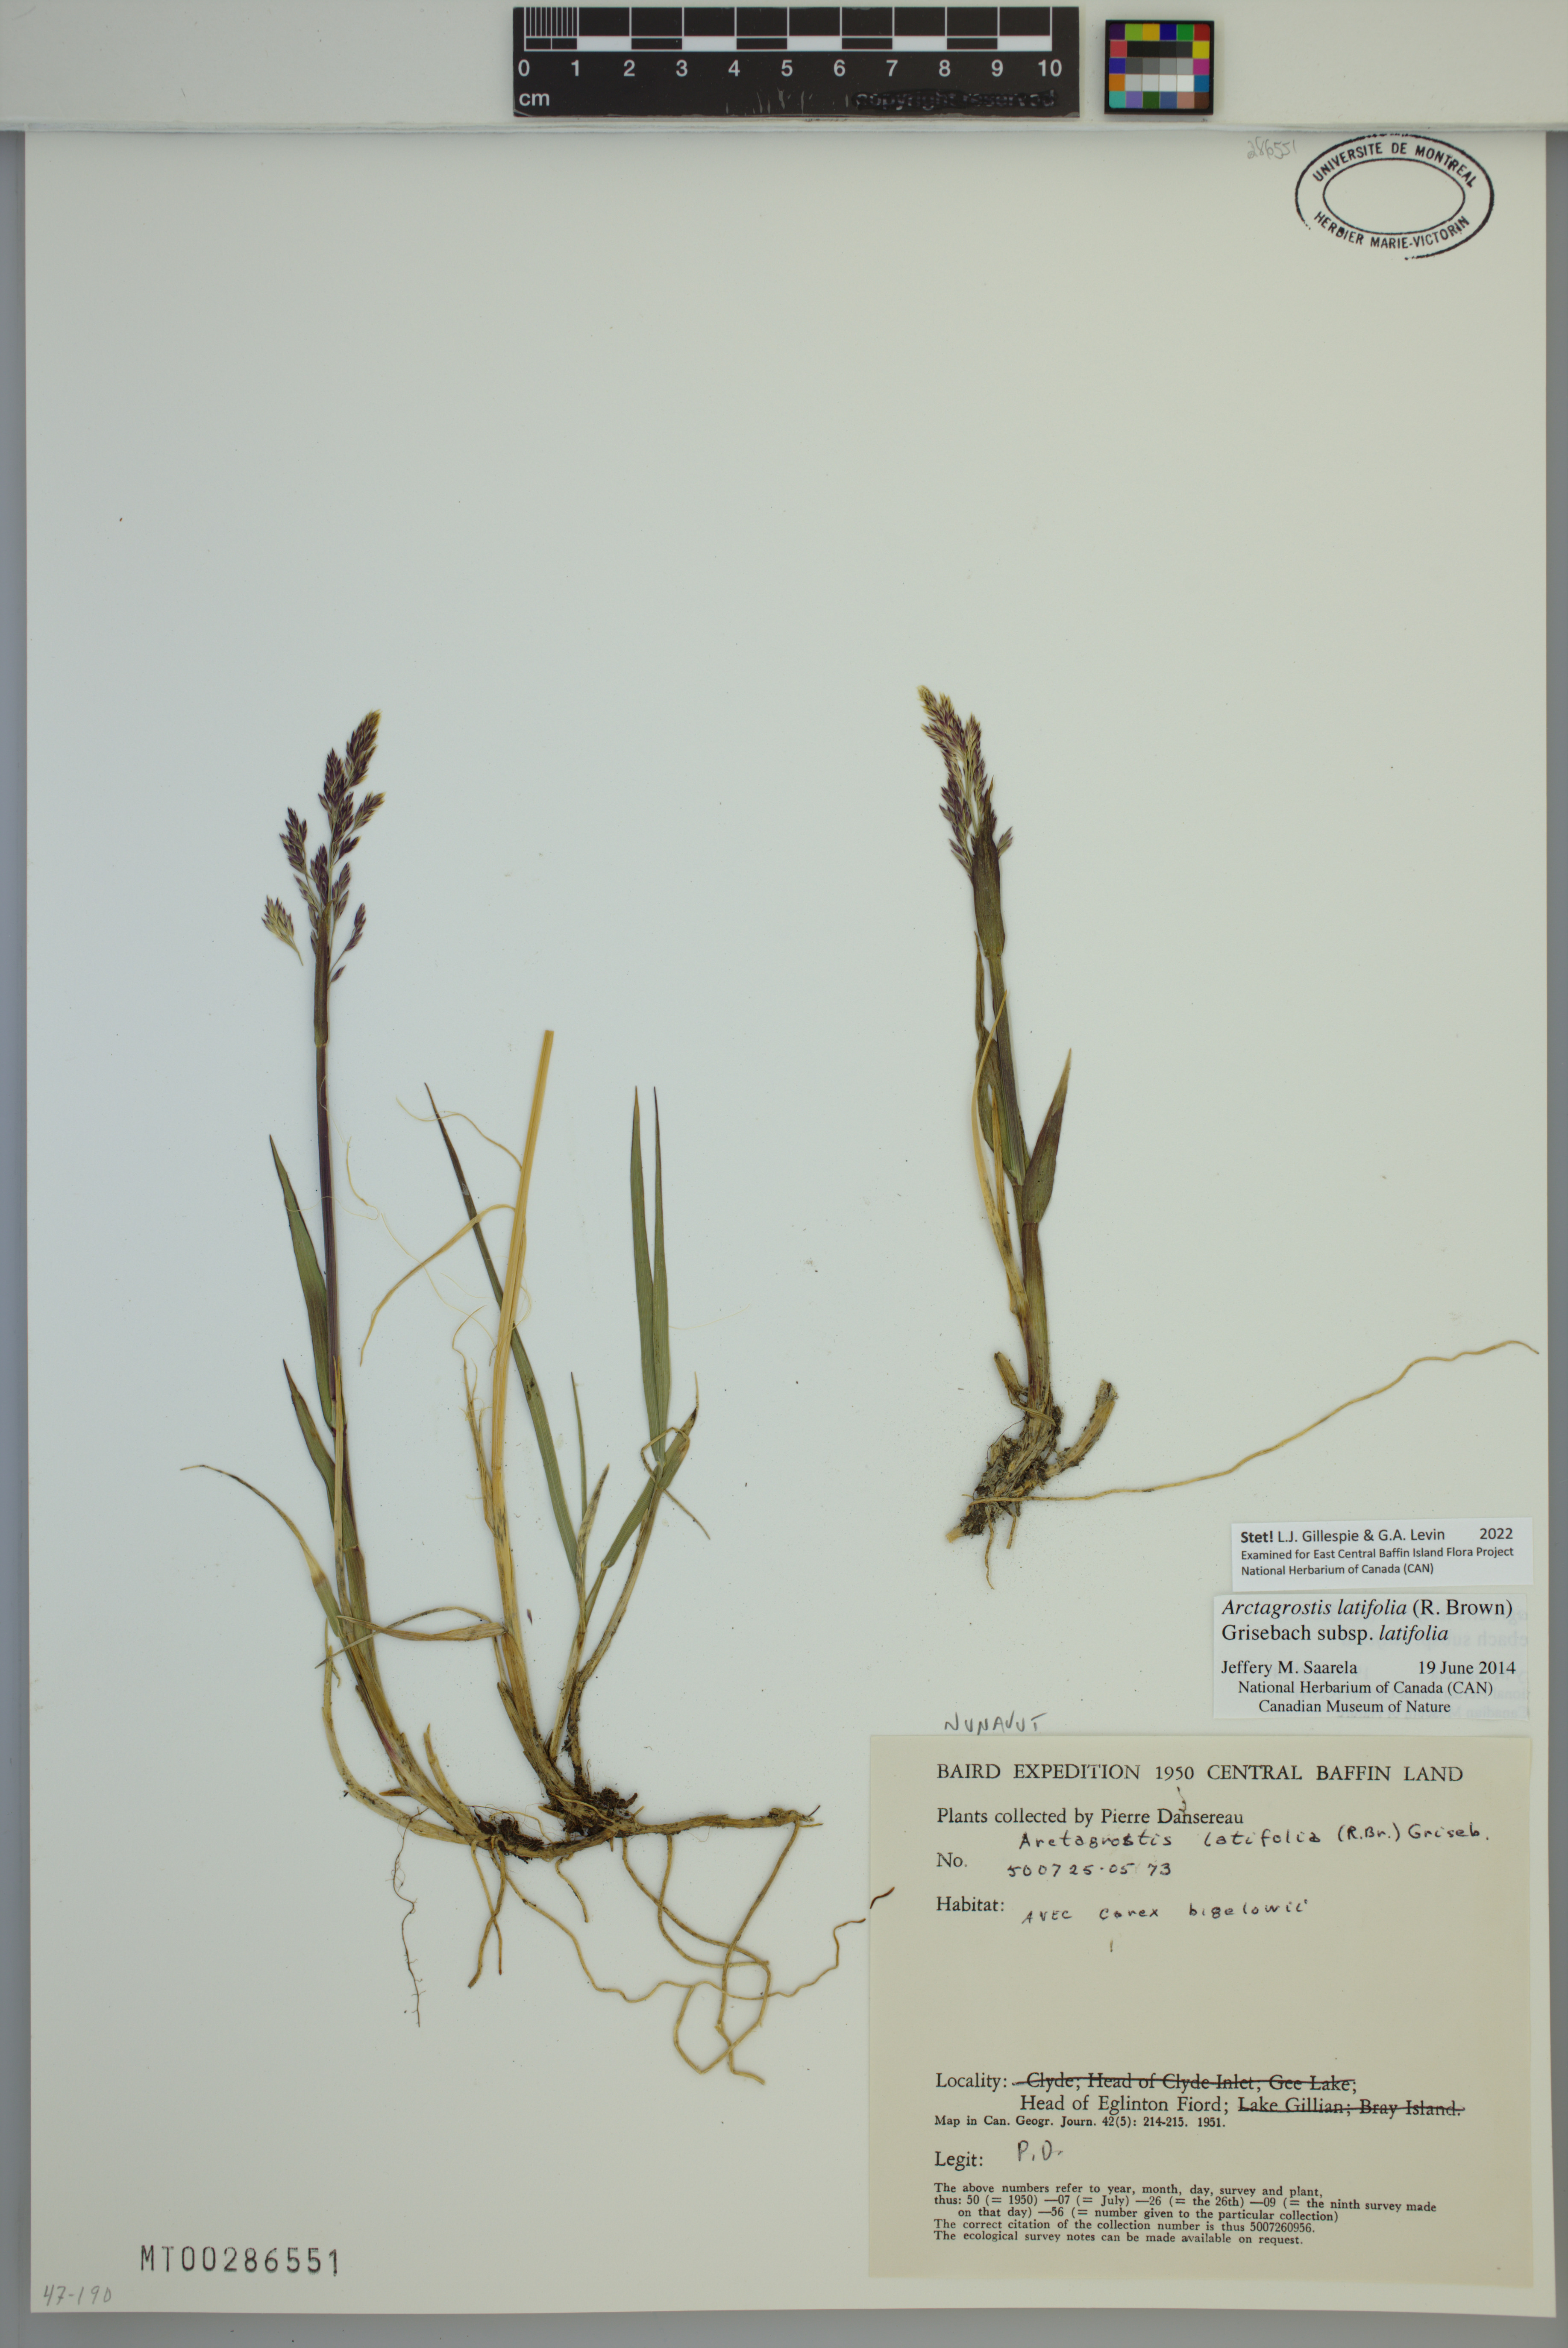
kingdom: Plantae
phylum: Tracheophyta
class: Liliopsida
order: Poales
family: Poaceae
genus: Arctagrostis
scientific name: Arctagrostis latifolia
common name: Arctic grass
